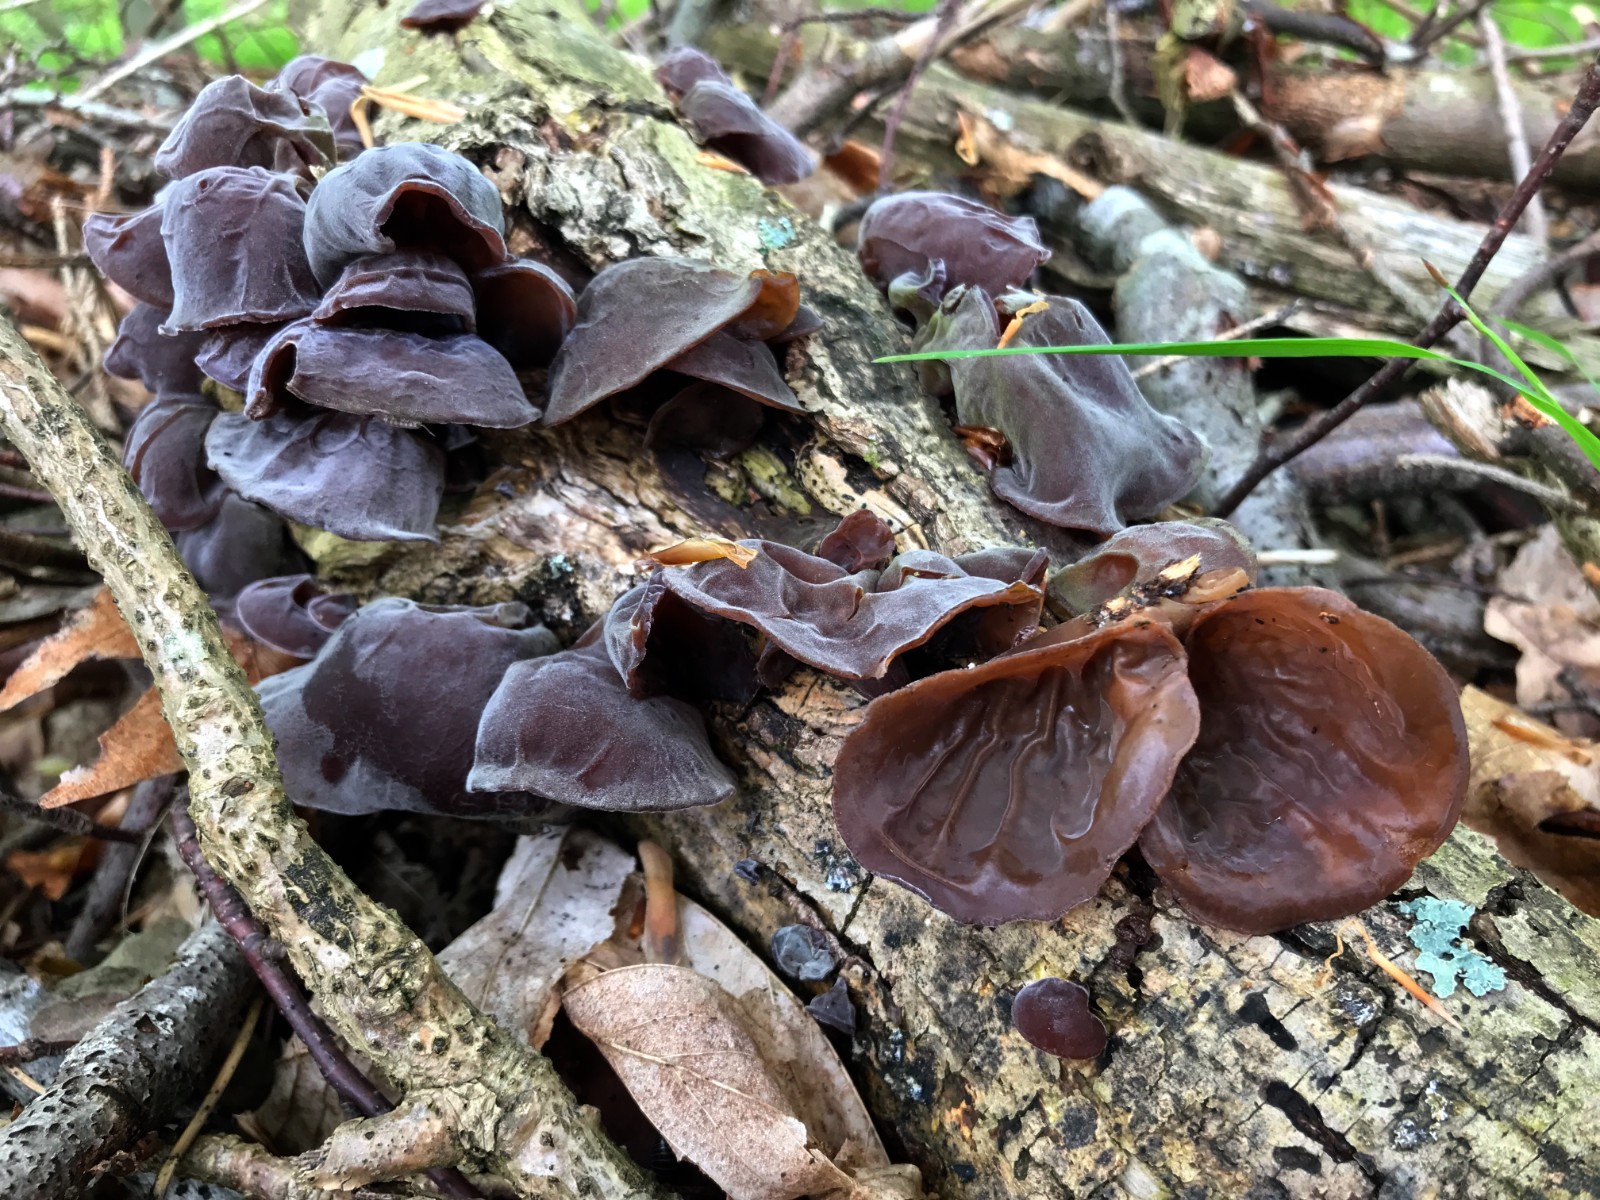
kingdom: Fungi
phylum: Basidiomycota
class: Agaricomycetes
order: Auriculariales
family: Auriculariaceae
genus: Auricularia
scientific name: Auricularia auricula-judae
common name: almindelig judasøre
